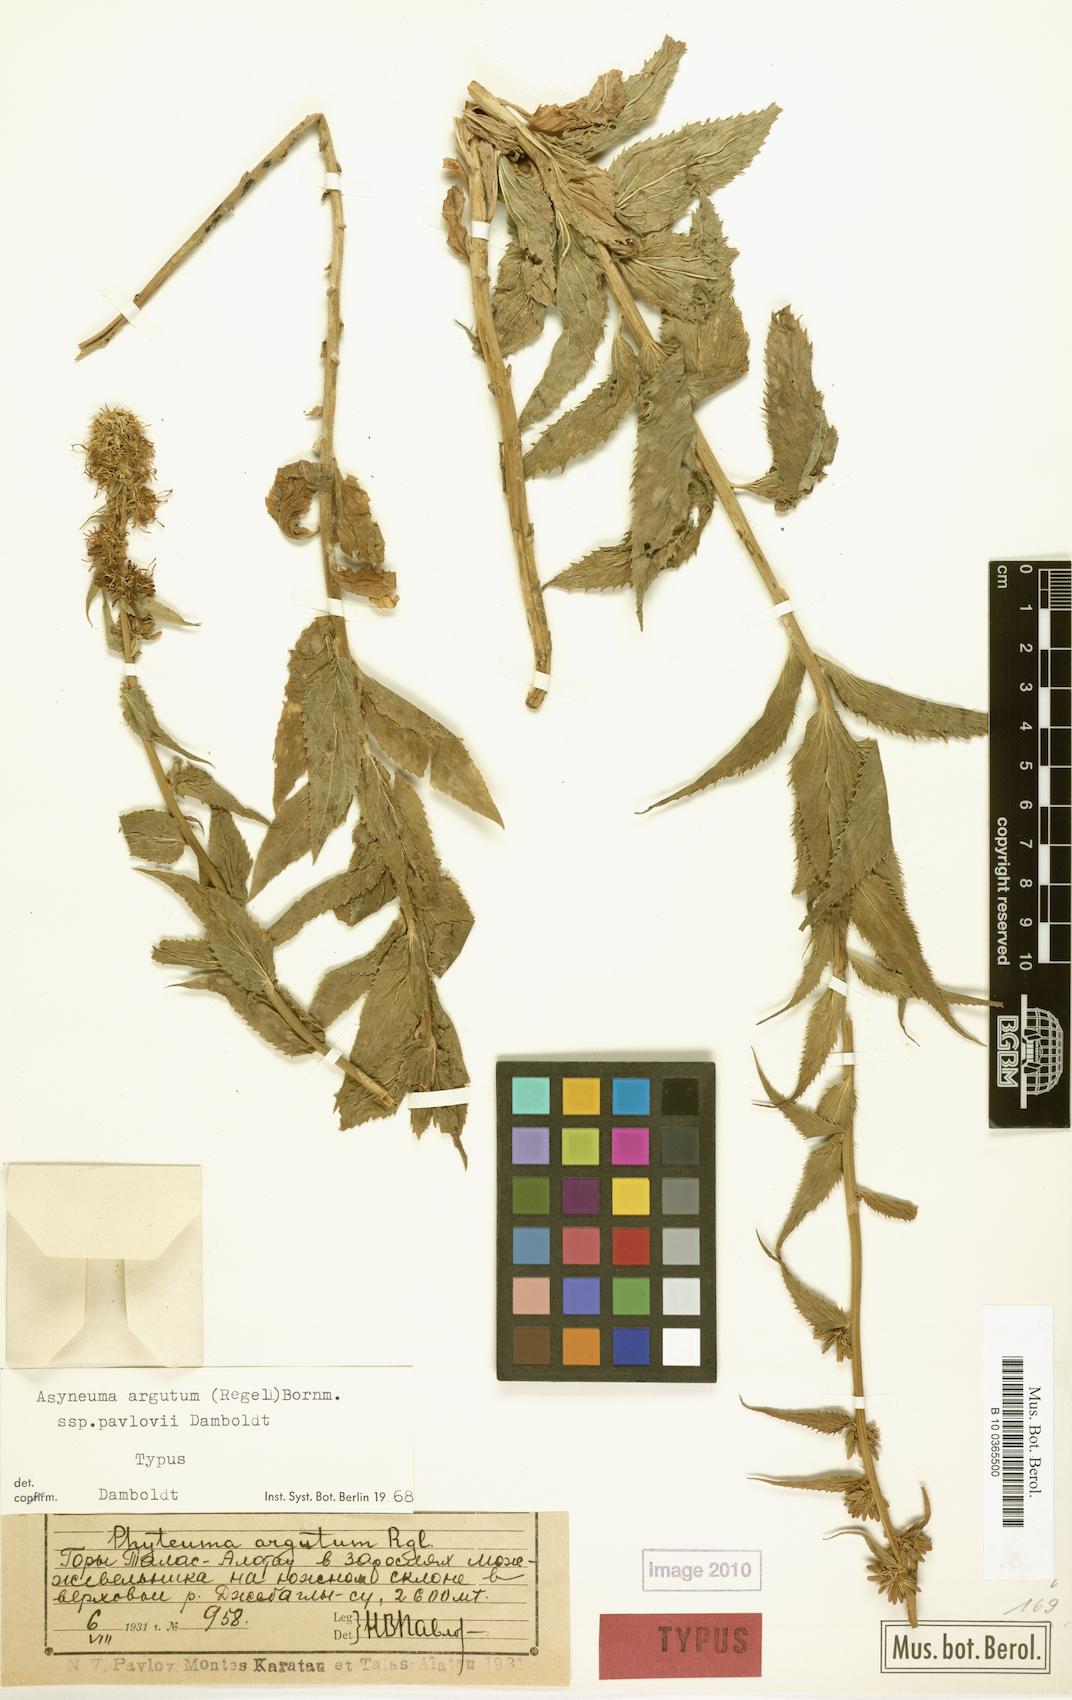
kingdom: Plantae
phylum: Tracheophyta
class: Magnoliopsida
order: Asterales
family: Campanulaceae
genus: Asyneuma
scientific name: Asyneuma argutum
